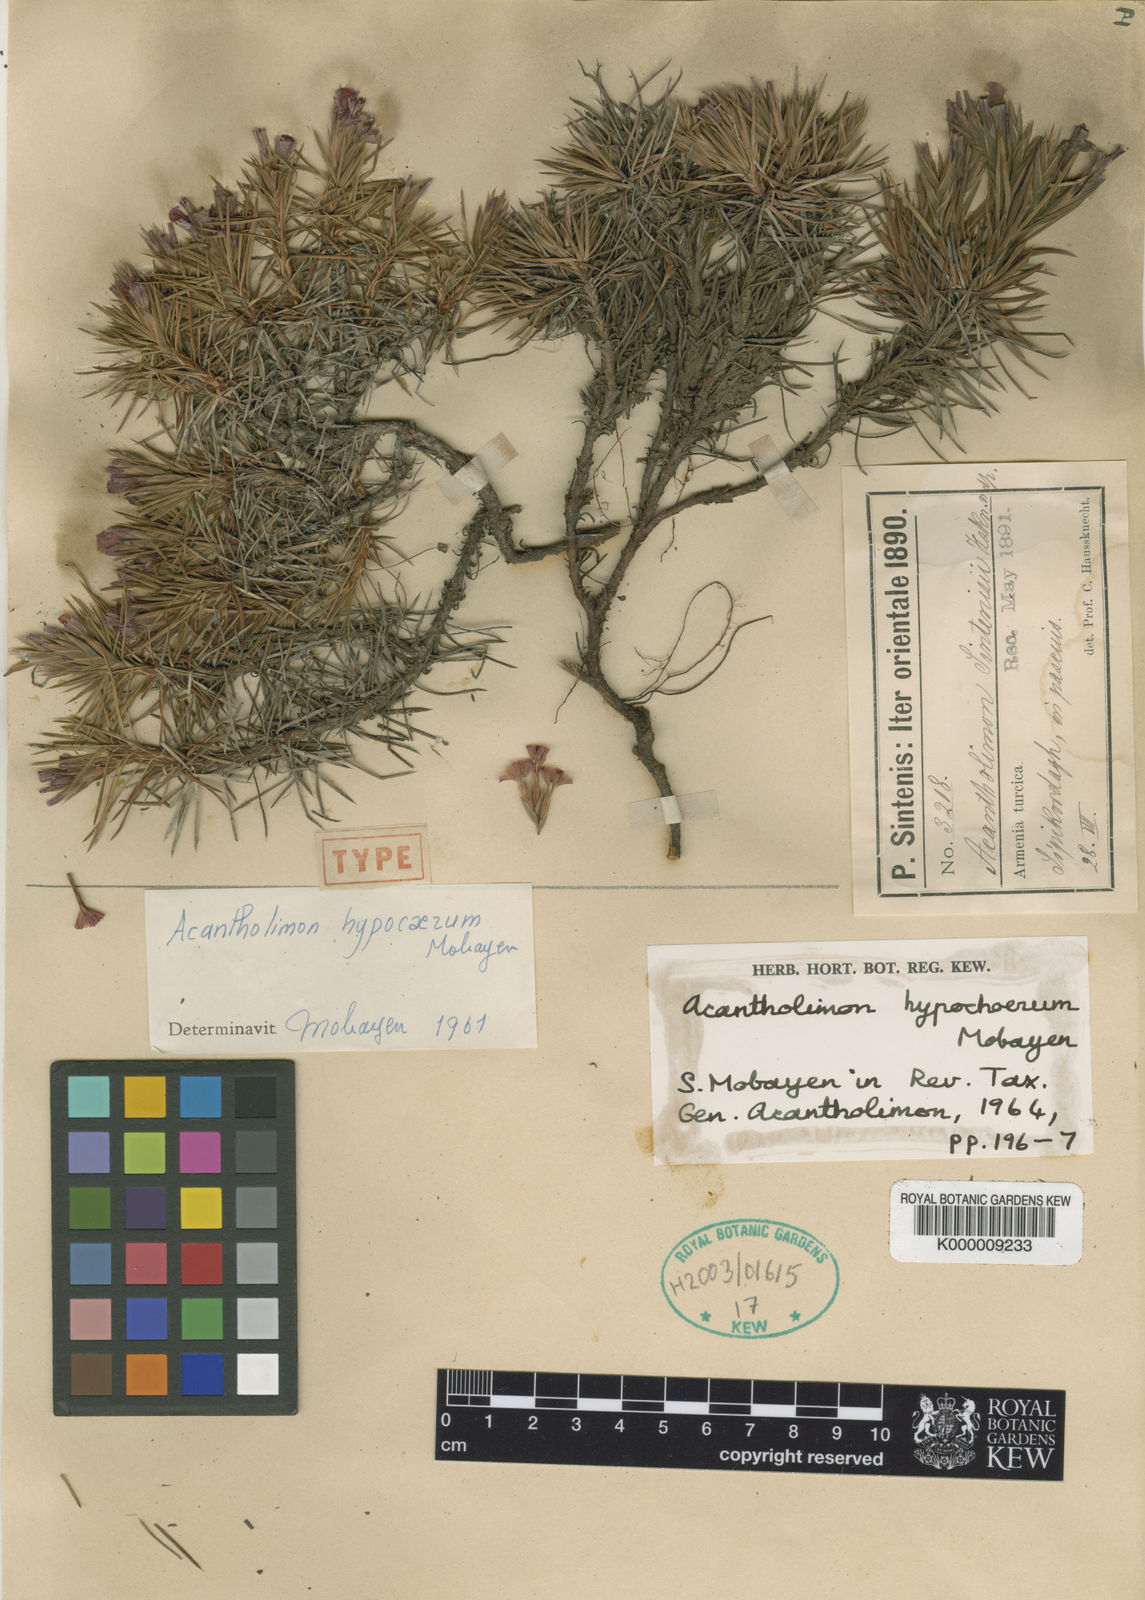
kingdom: Plantae
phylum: Tracheophyta
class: Magnoliopsida
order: Caryophyllales
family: Plumbaginaceae
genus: Acantholimon
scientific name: Acantholimon
